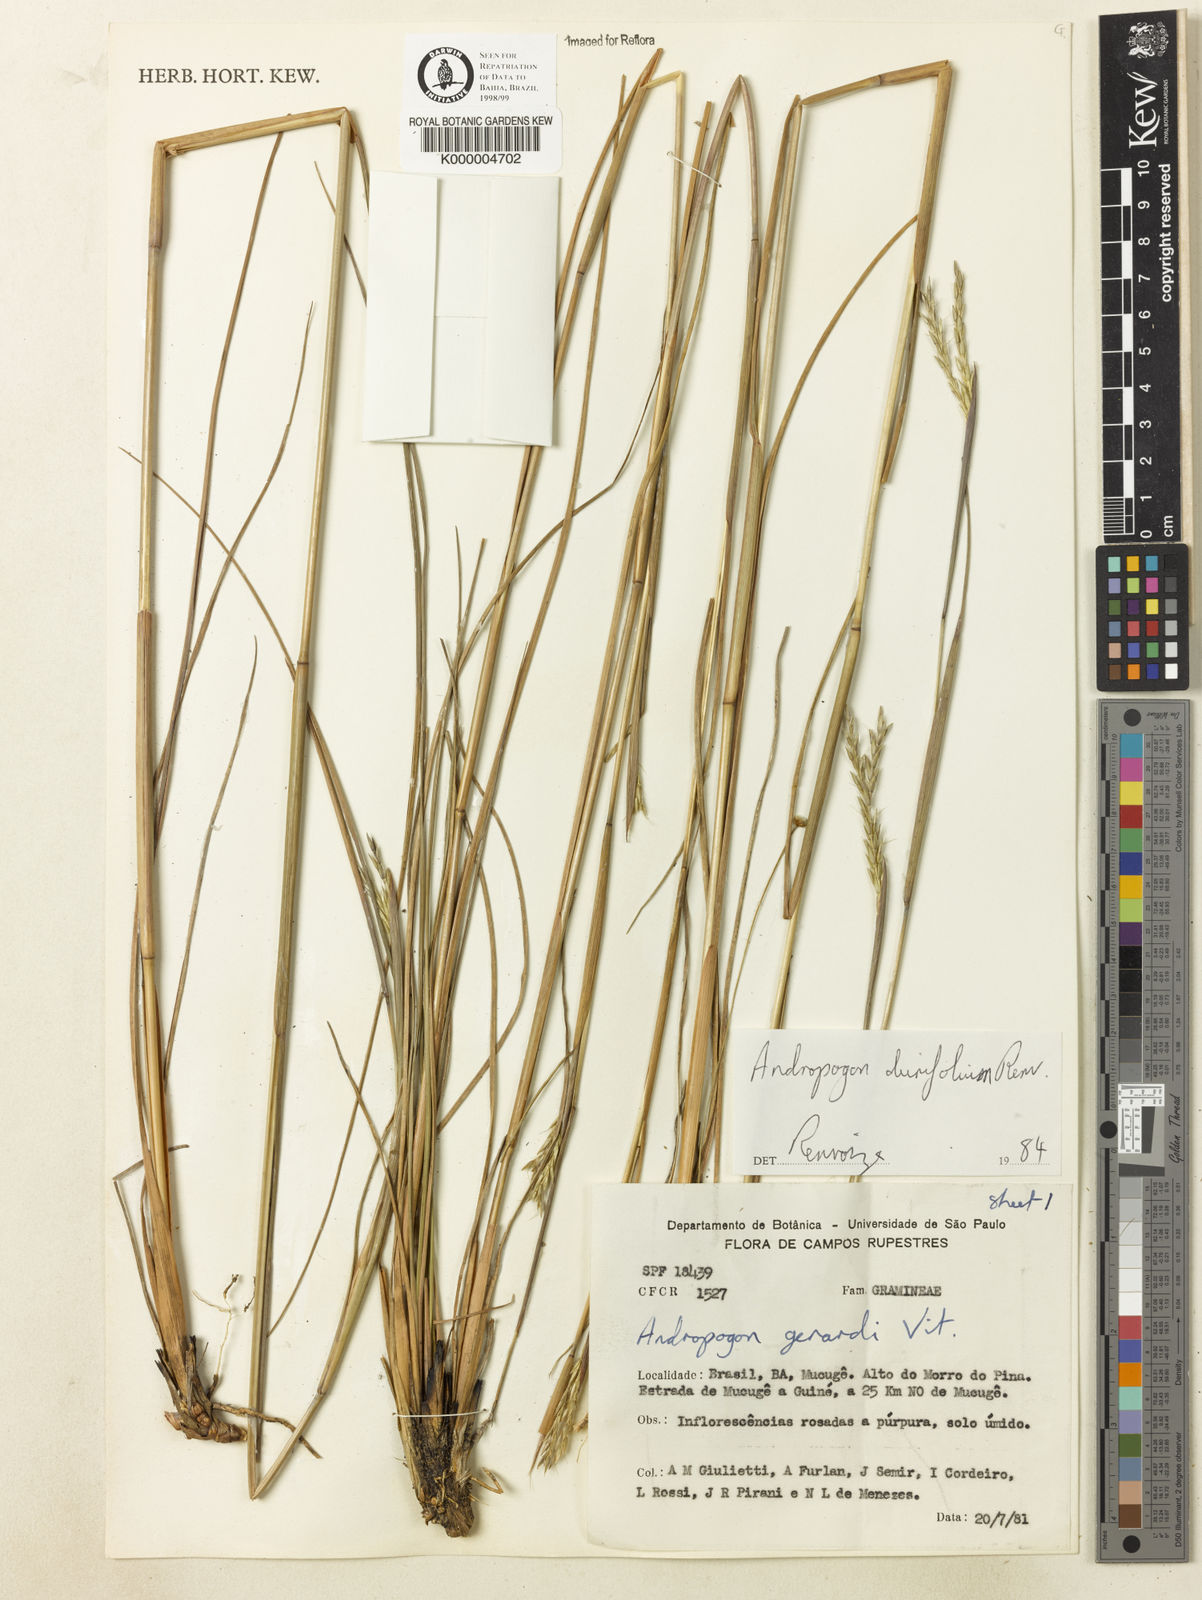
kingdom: Plantae
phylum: Tracheophyta
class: Liliopsida
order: Poales
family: Poaceae
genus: Andropogon
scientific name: Andropogon durifolius
